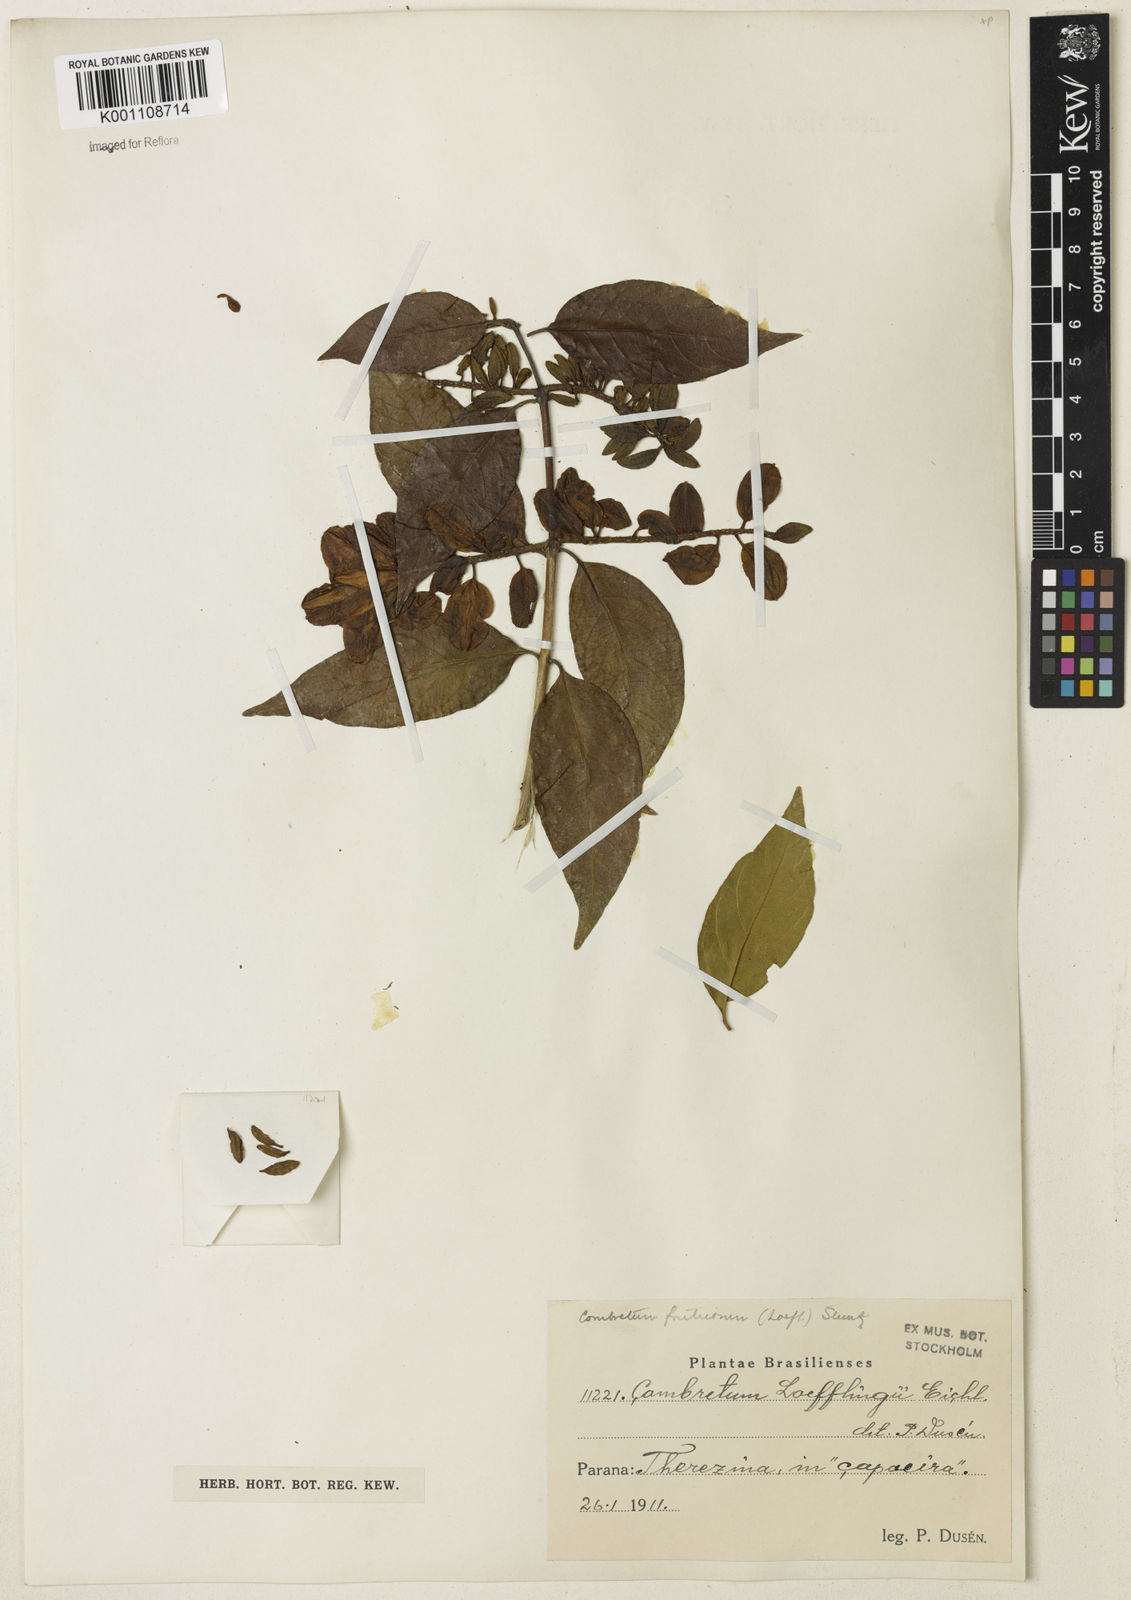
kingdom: Plantae
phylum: Tracheophyta
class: Magnoliopsida
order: Myrtales
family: Combretaceae
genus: Combretum
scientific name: Combretum fruticosum
